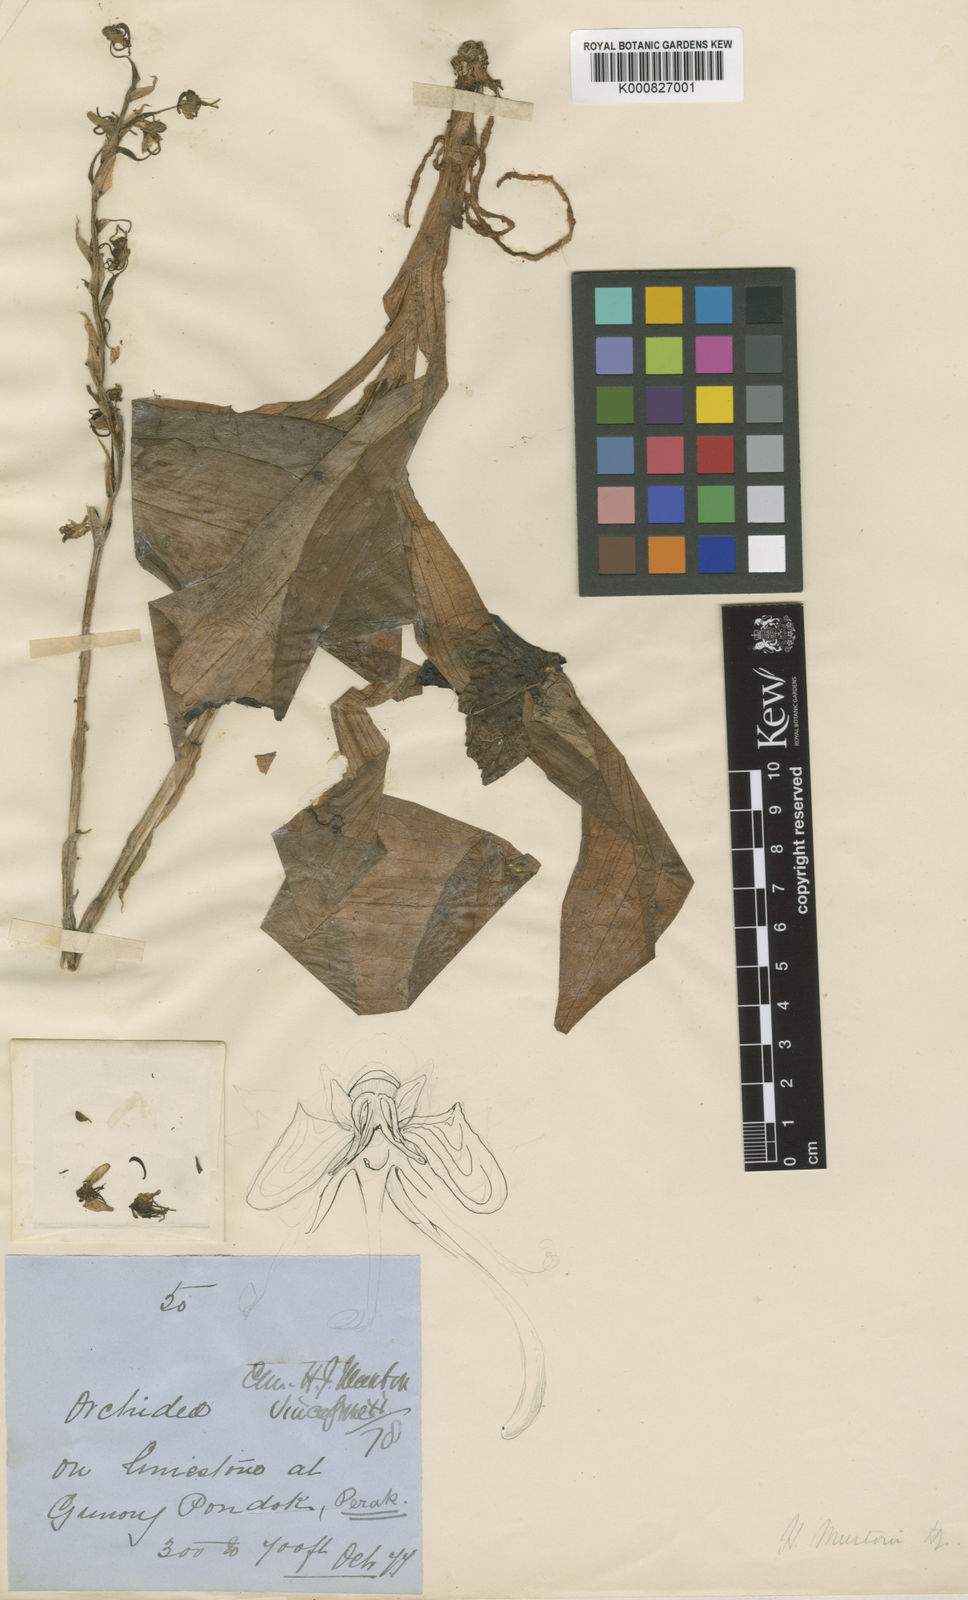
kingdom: Plantae
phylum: Tracheophyta
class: Liliopsida
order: Asparagales
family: Orchidaceae
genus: Habenaria
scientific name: Habenaria reflexa
